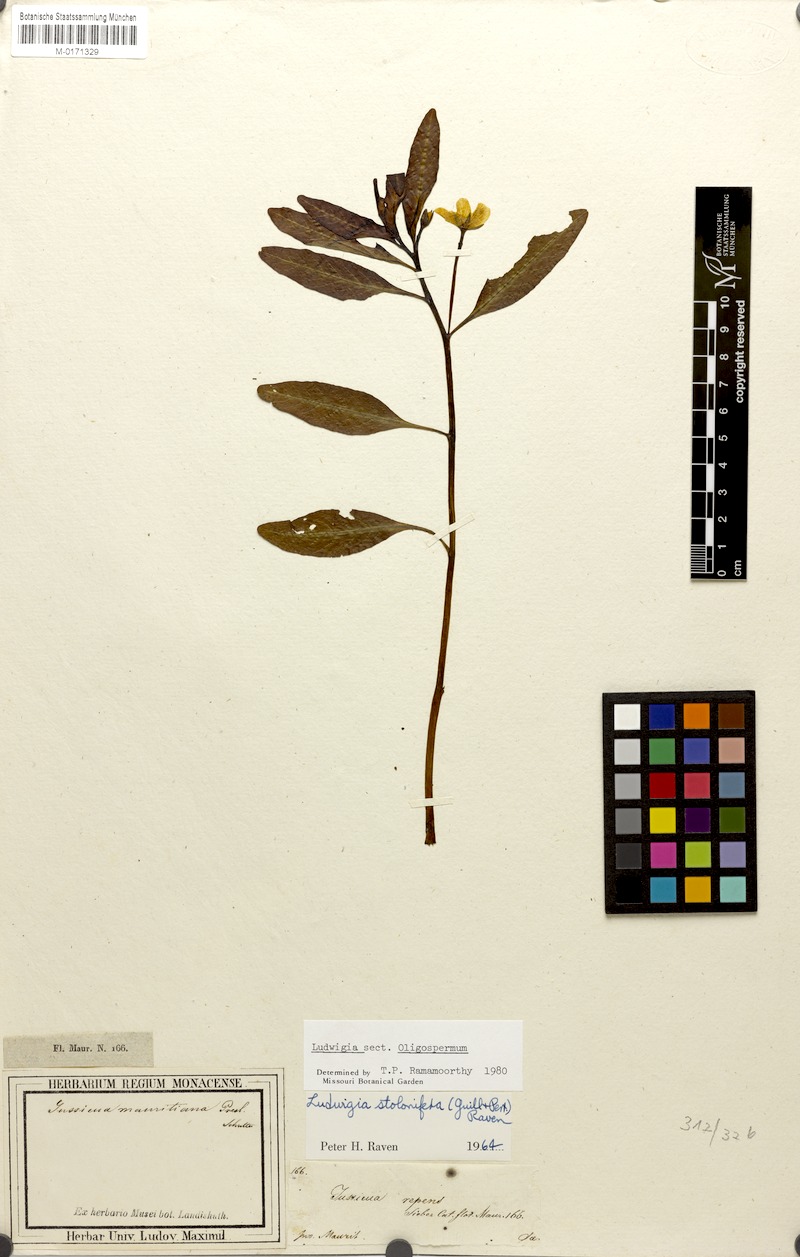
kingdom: Plantae
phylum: Tracheophyta
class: Magnoliopsida
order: Myrtales
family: Onagraceae
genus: Ludwigia
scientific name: Ludwigia adscendens
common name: Creeping water primrose
